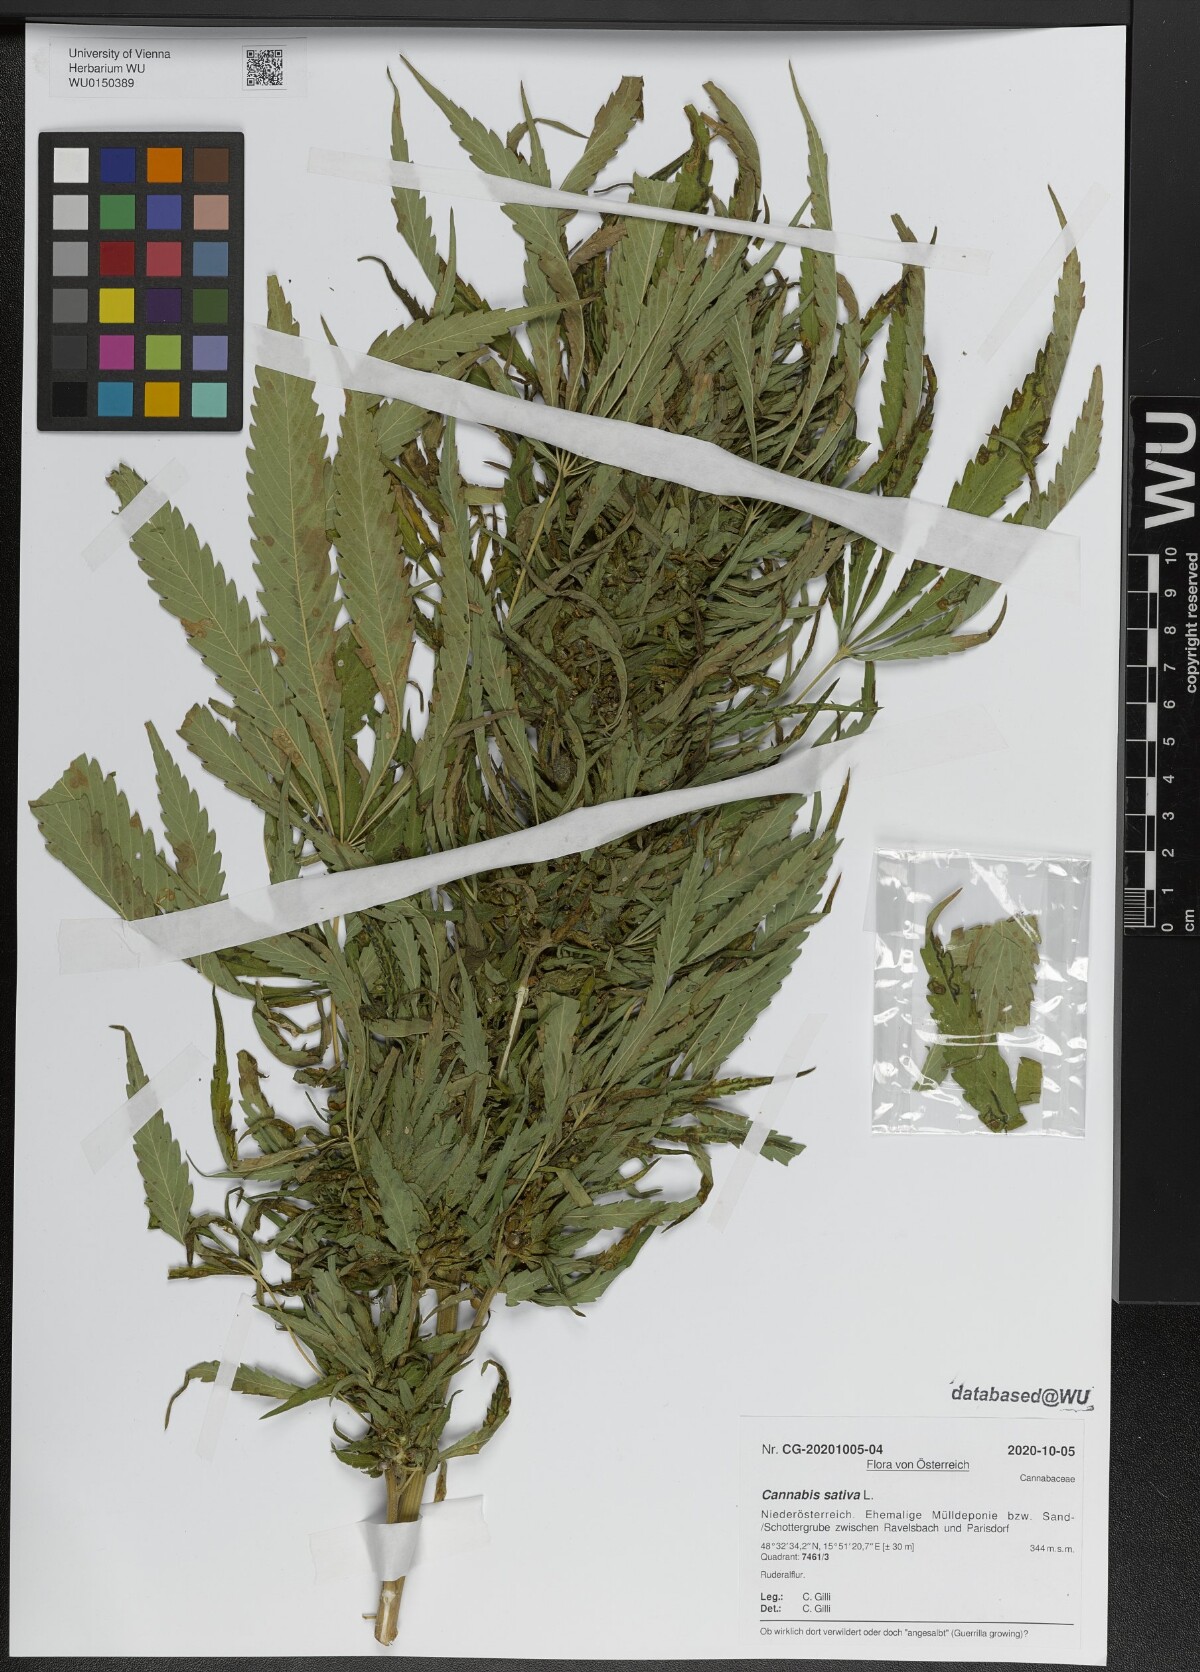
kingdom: Plantae
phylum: Tracheophyta
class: Magnoliopsida
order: Rosales
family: Cannabaceae
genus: Cannabis
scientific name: Cannabis sativa
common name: Hemp
